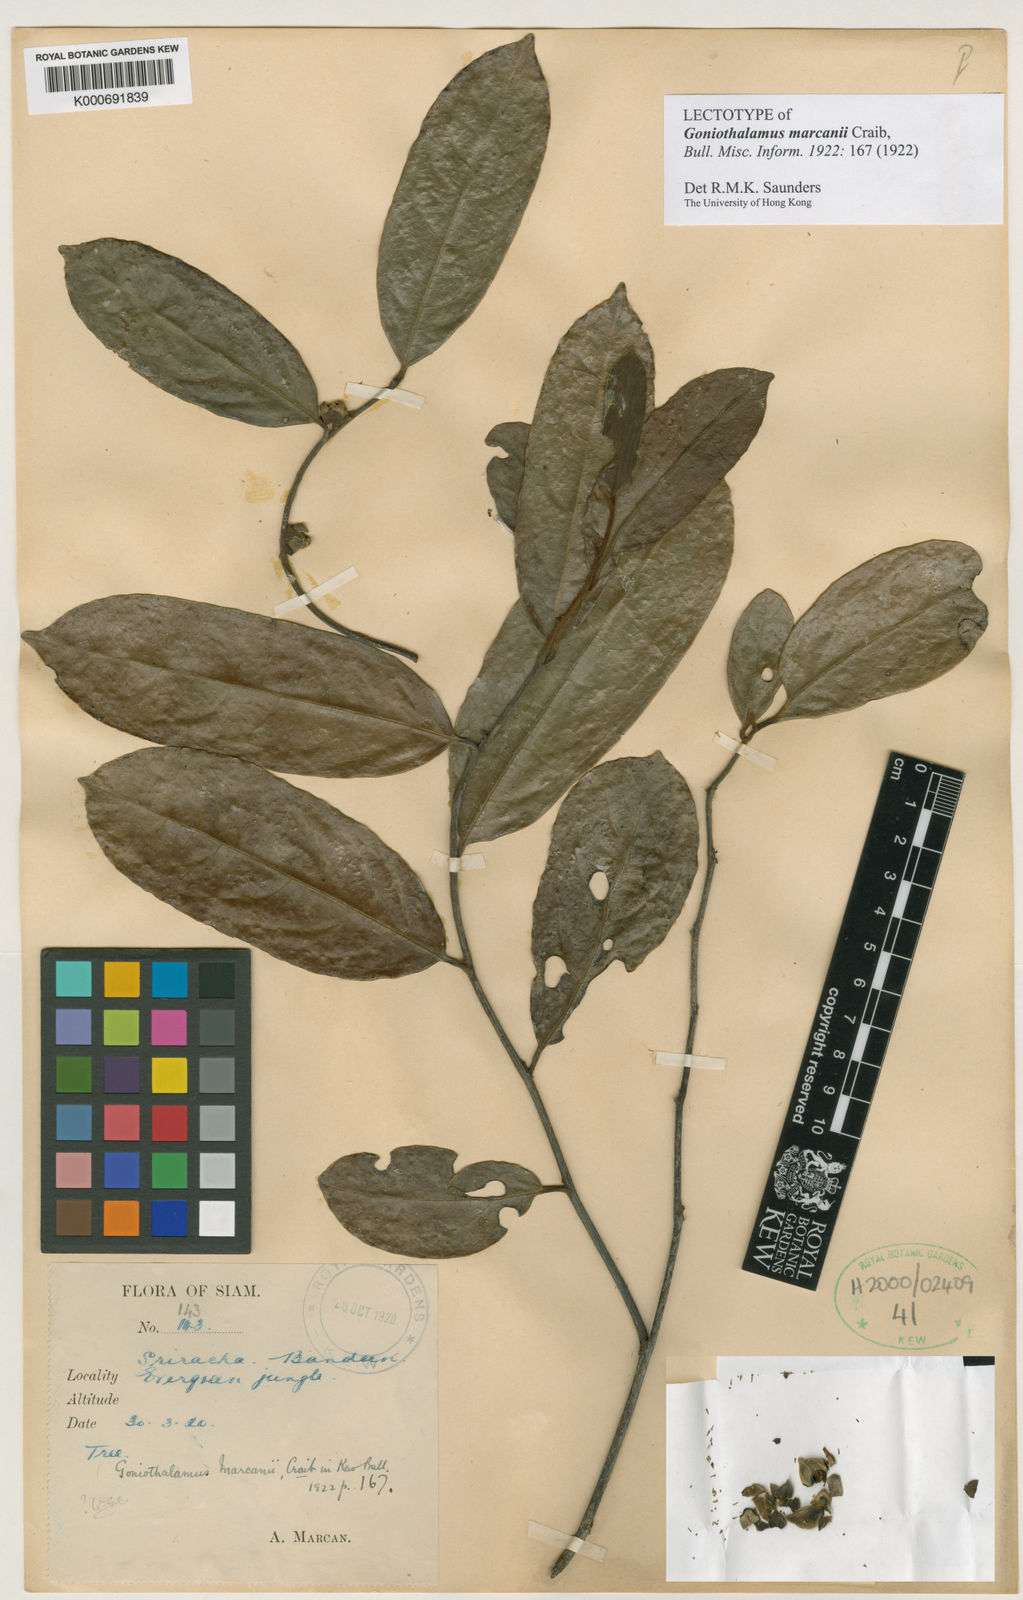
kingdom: Plantae
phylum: Tracheophyta
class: Magnoliopsida
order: Magnoliales
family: Annonaceae
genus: Goniothalamus
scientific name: Goniothalamus tamirensis
